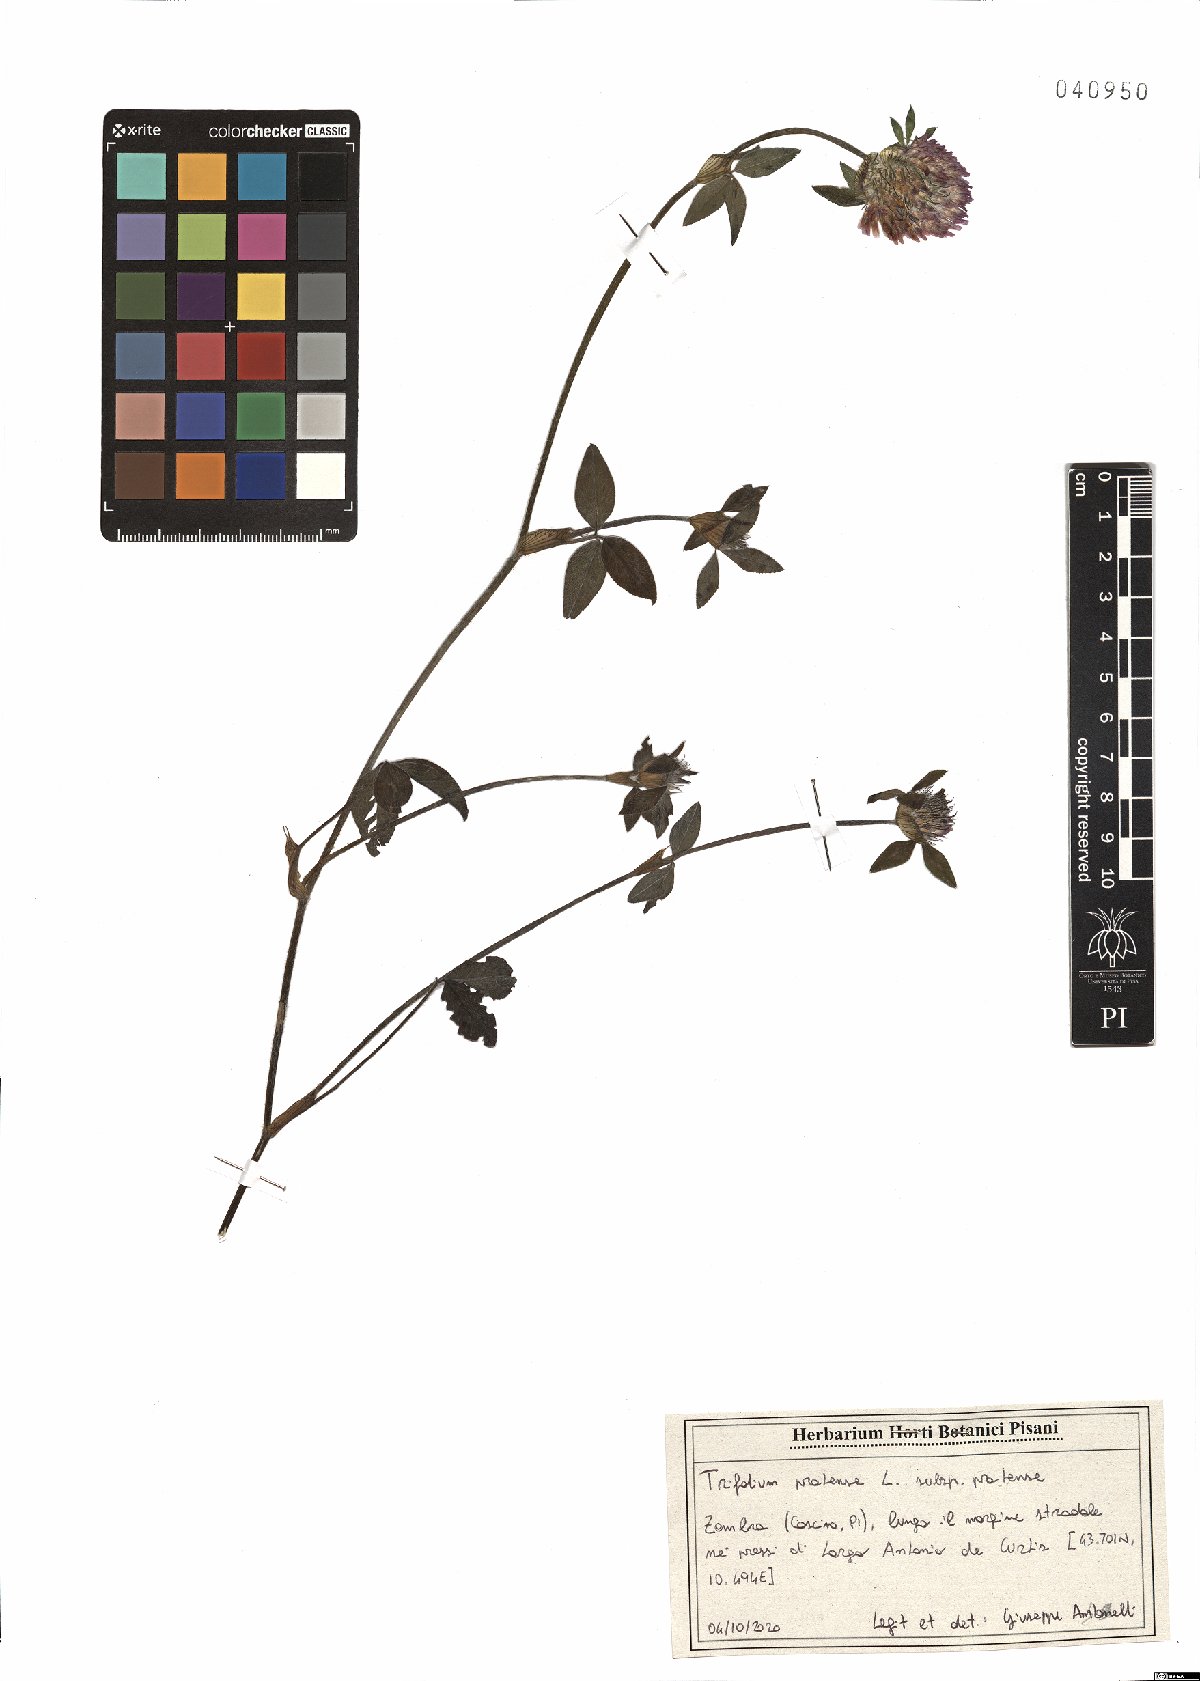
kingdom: Plantae
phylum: Tracheophyta
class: Magnoliopsida
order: Fabales
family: Fabaceae
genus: Trifolium
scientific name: Trifolium pratense
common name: Red clover
